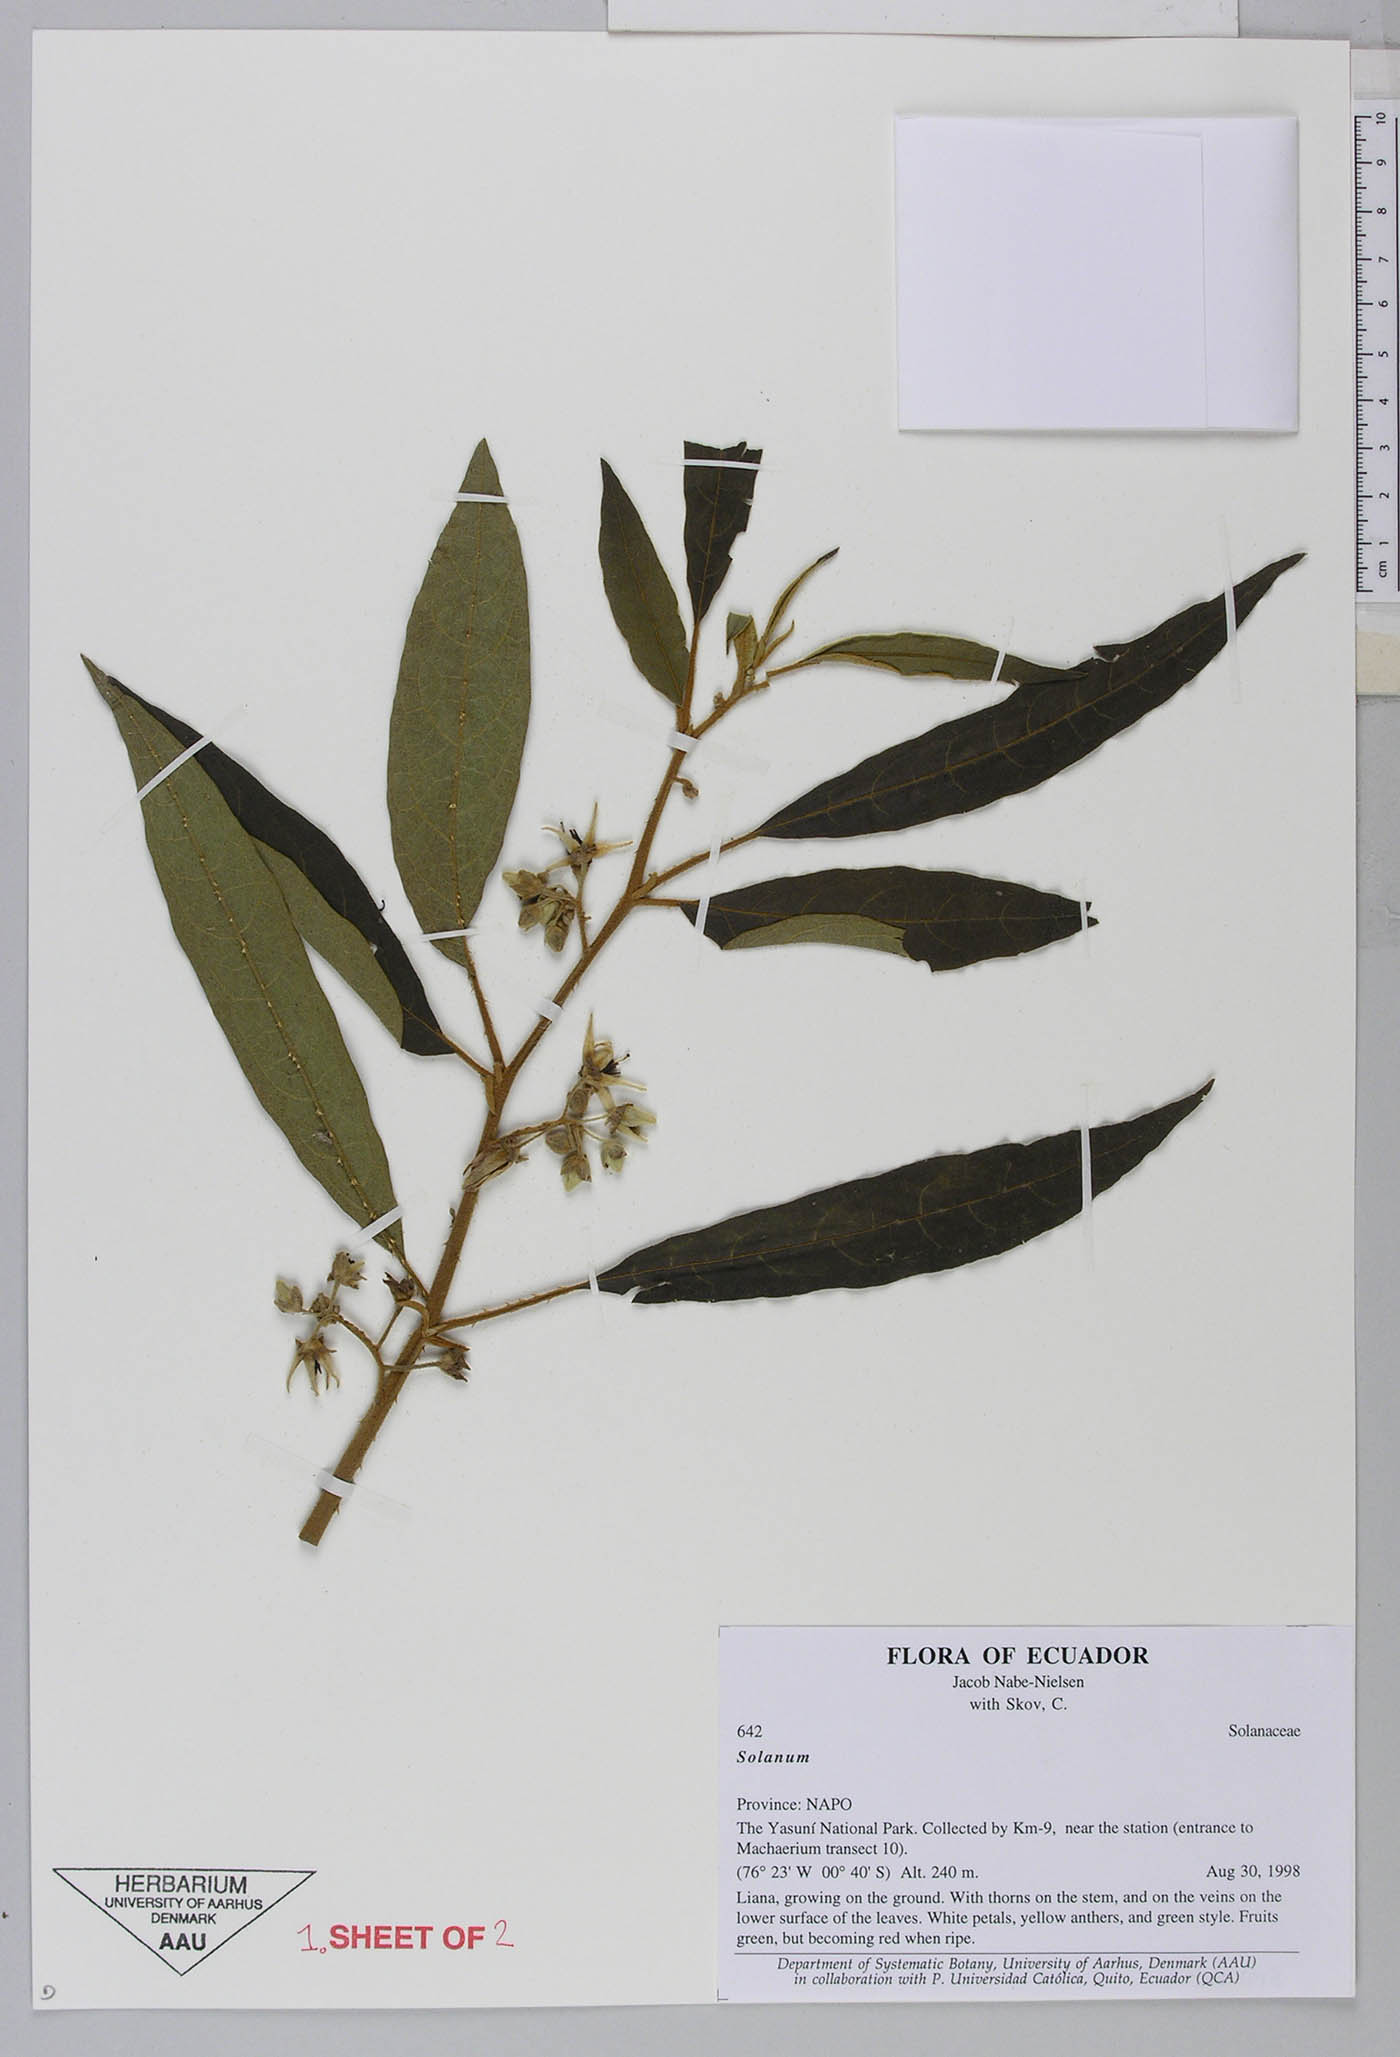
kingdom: Plantae
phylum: Tracheophyta
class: Magnoliopsida
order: Solanales
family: Solanaceae
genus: Solanum
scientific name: Solanum pedemontanum
